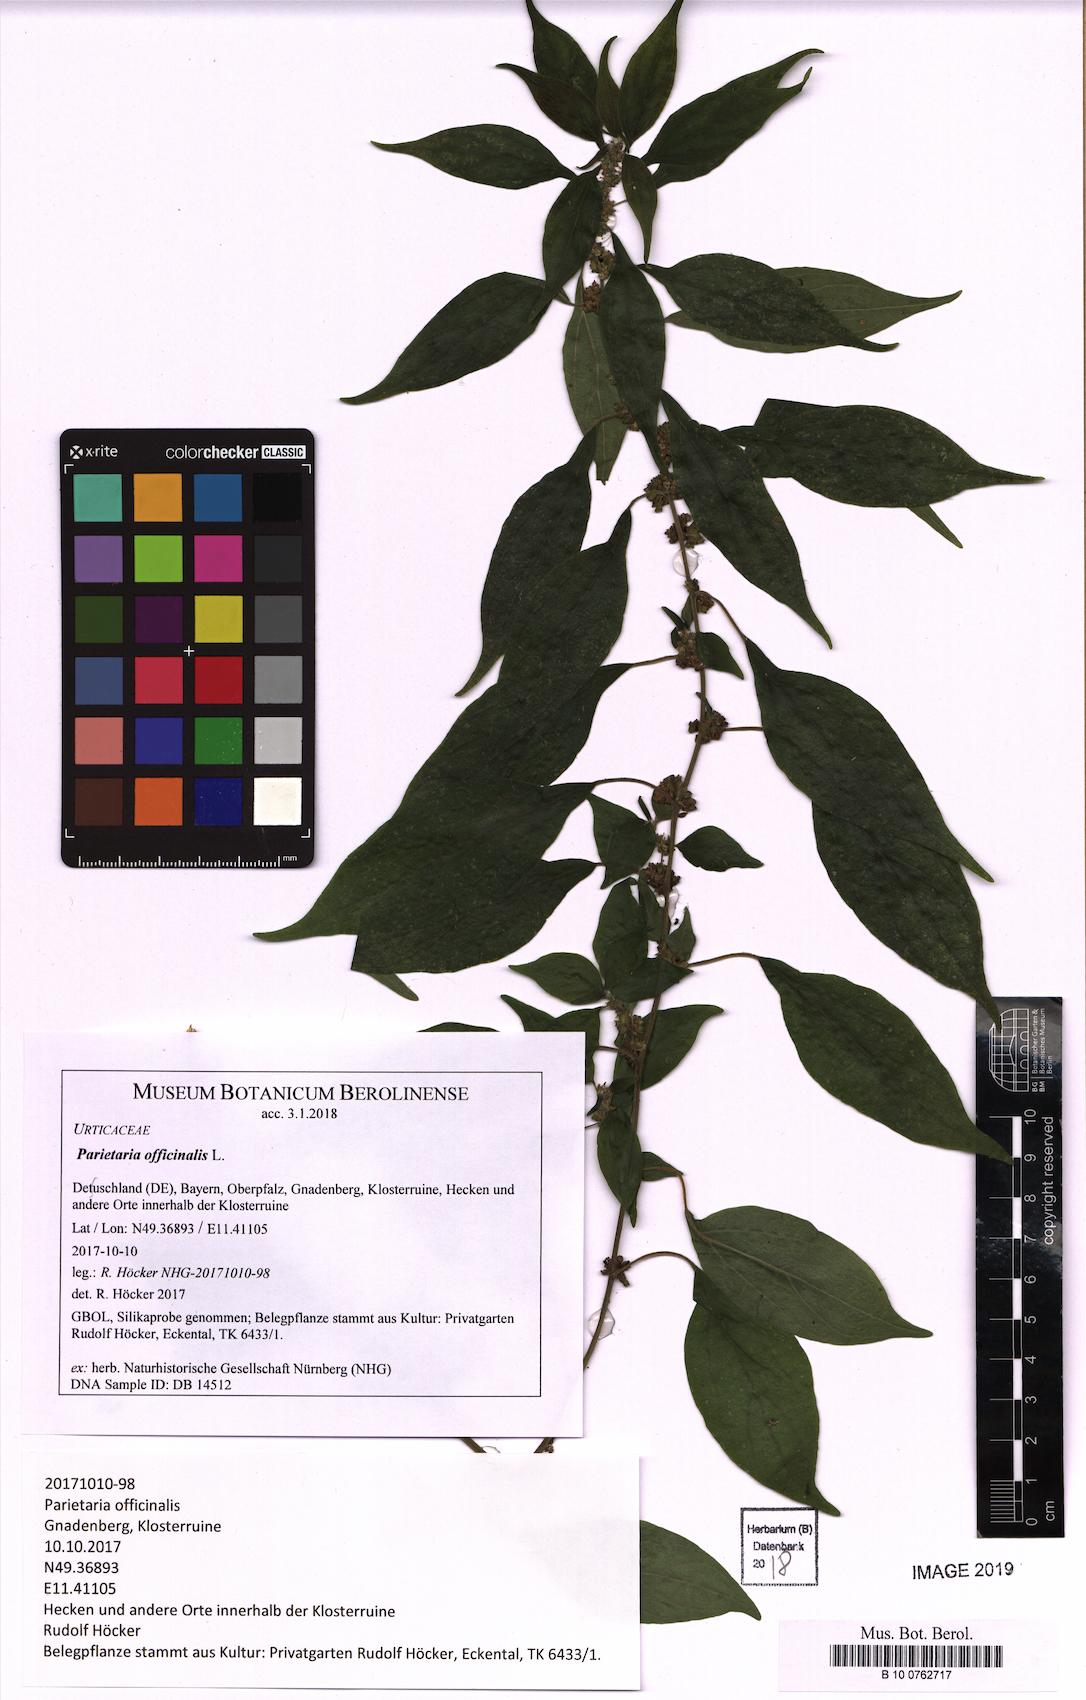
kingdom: Plantae
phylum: Tracheophyta
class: Magnoliopsida
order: Rosales
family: Urticaceae
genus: Parietaria
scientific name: Parietaria officinalis
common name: Eastern pellitory-of-the-wall
